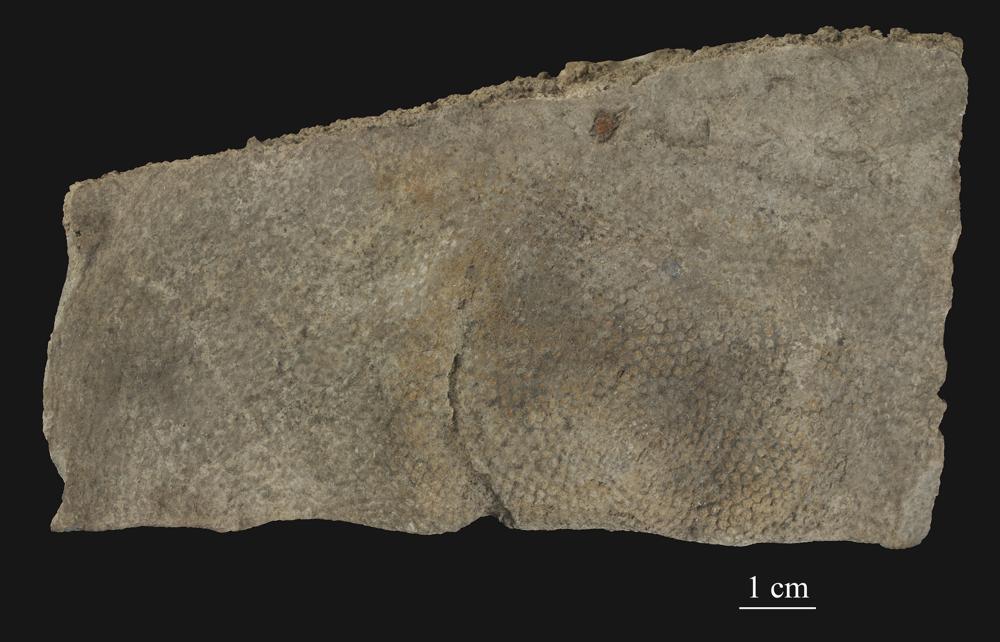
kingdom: Plantae
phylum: Chlorophyta
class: Chlorophyceae
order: Receptaculitales
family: Receptaculitaceae
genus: Receptaculites
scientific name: Receptaculites
